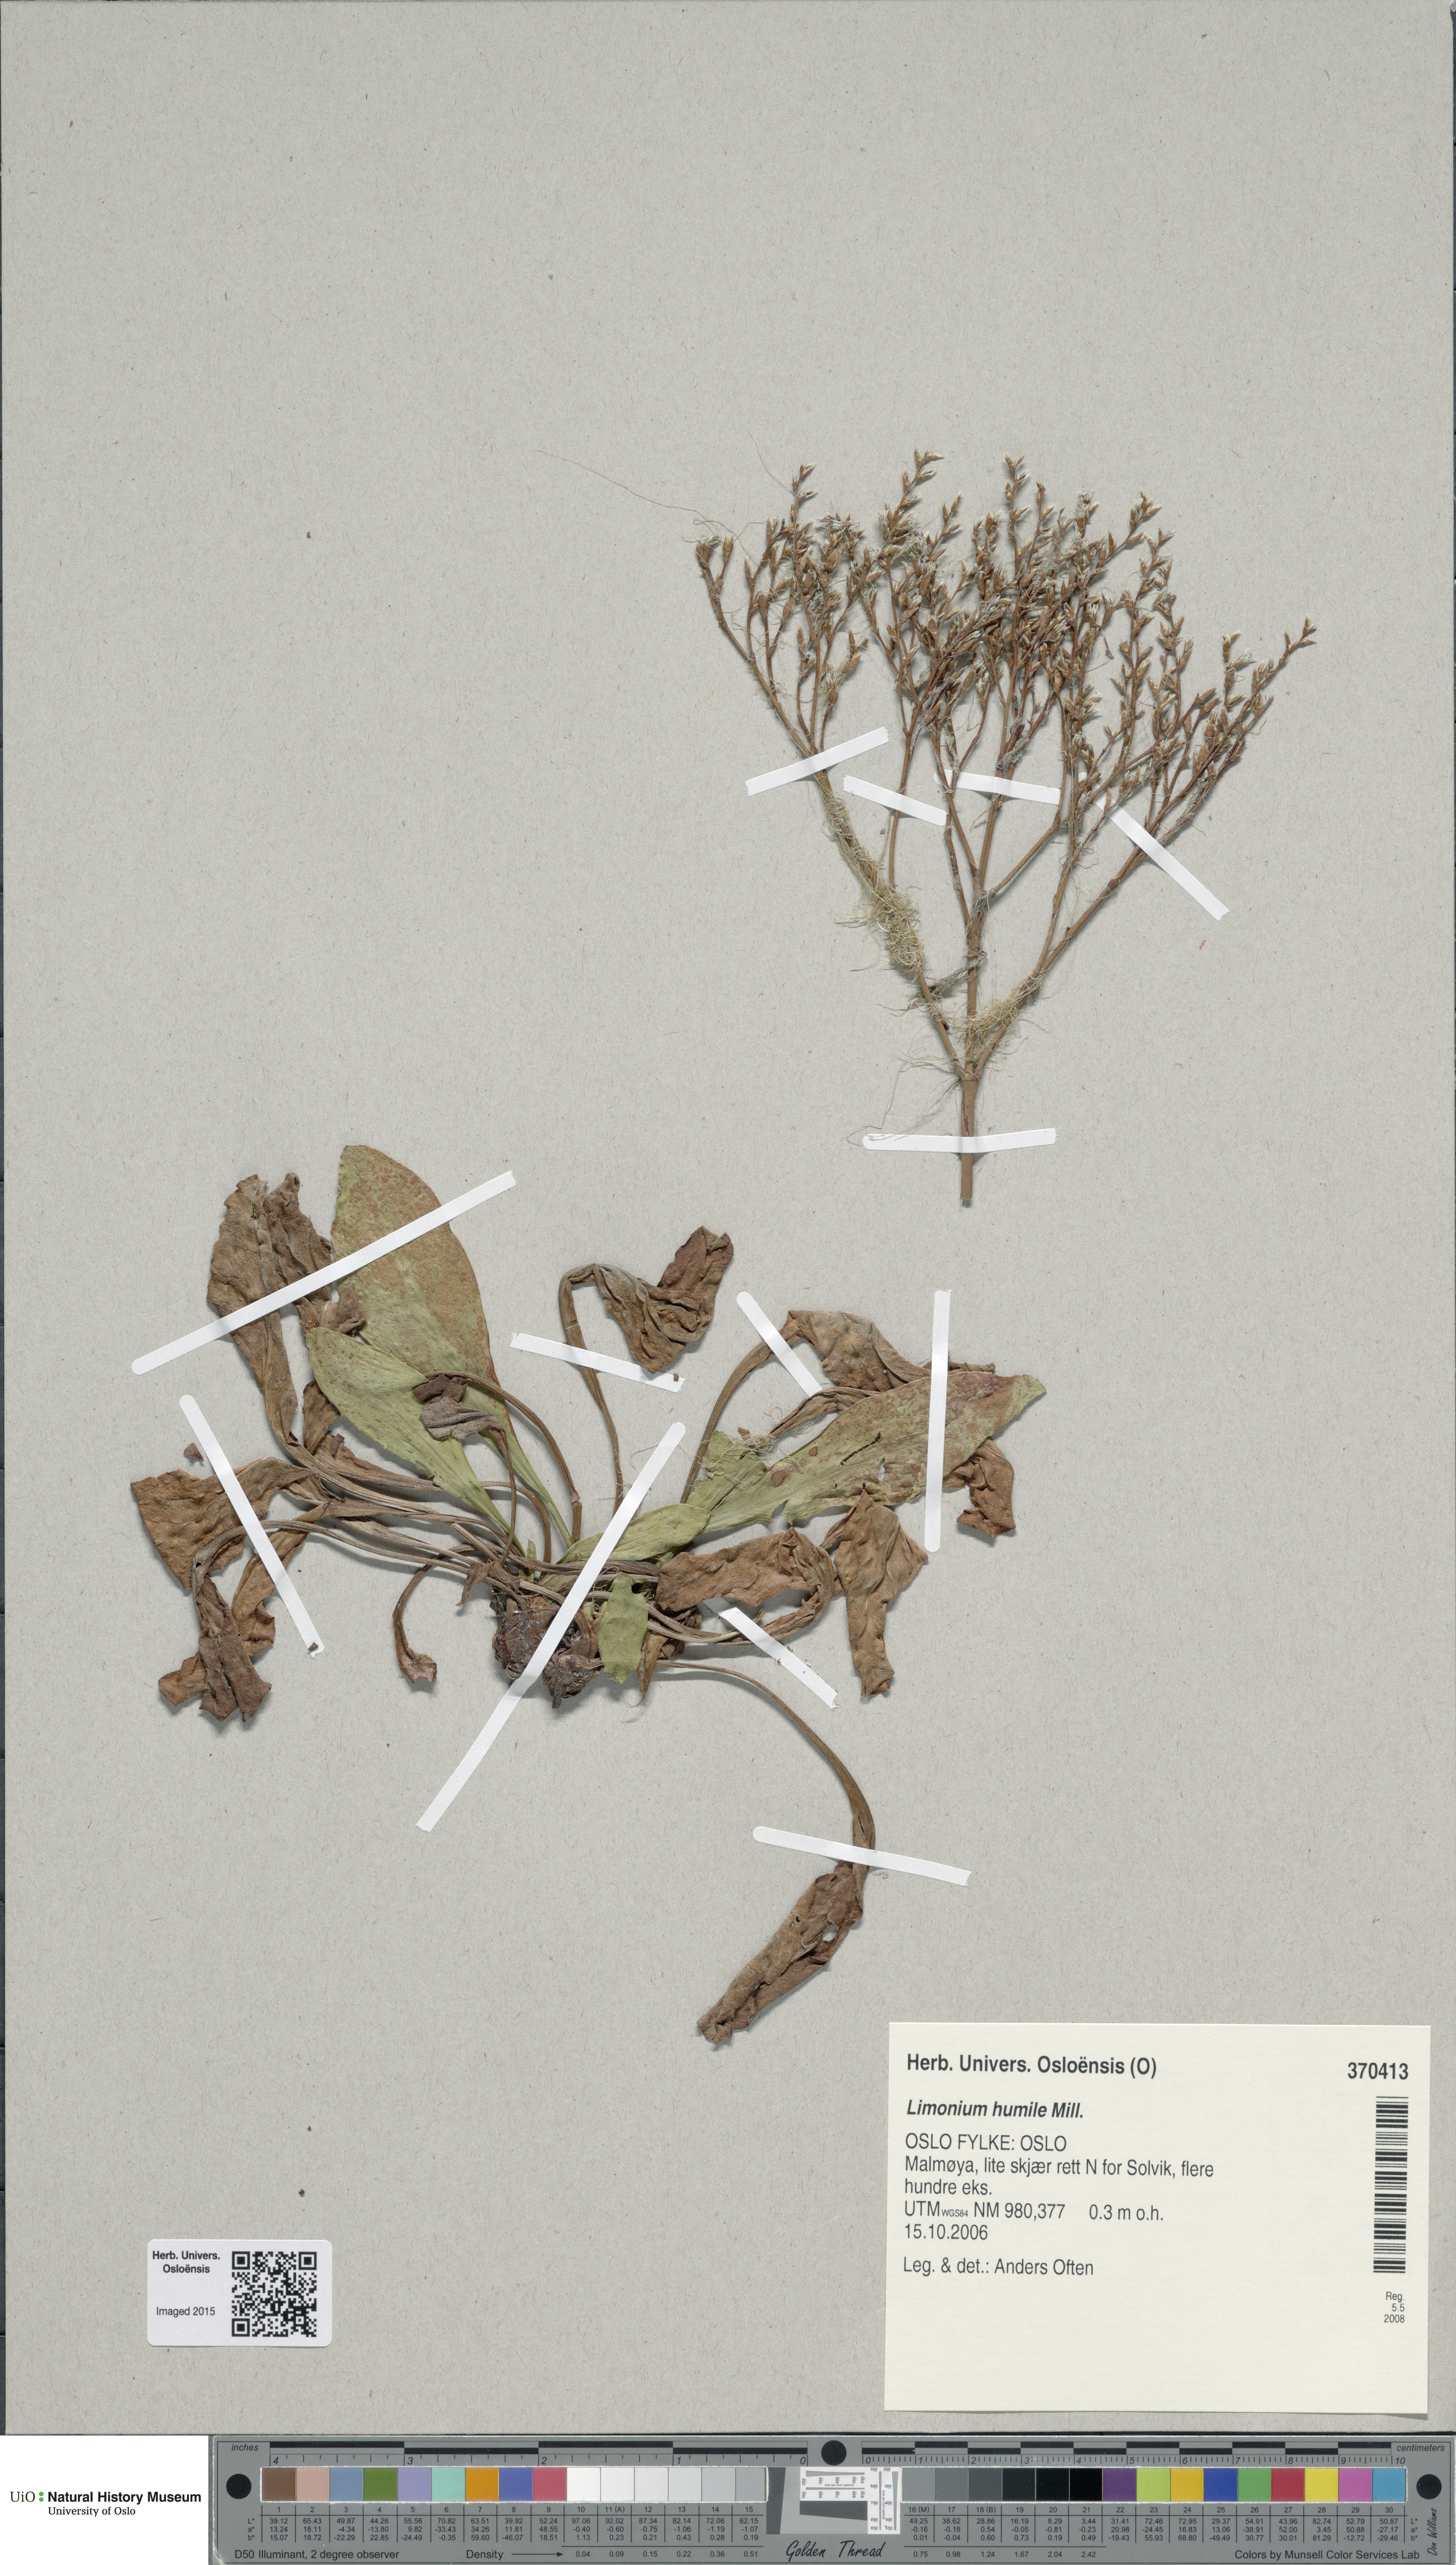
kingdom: Plantae
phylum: Tracheophyta
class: Magnoliopsida
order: Caryophyllales
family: Plumbaginaceae
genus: Limonium
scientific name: Limonium humile
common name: Lax-flowered sea-lavender
